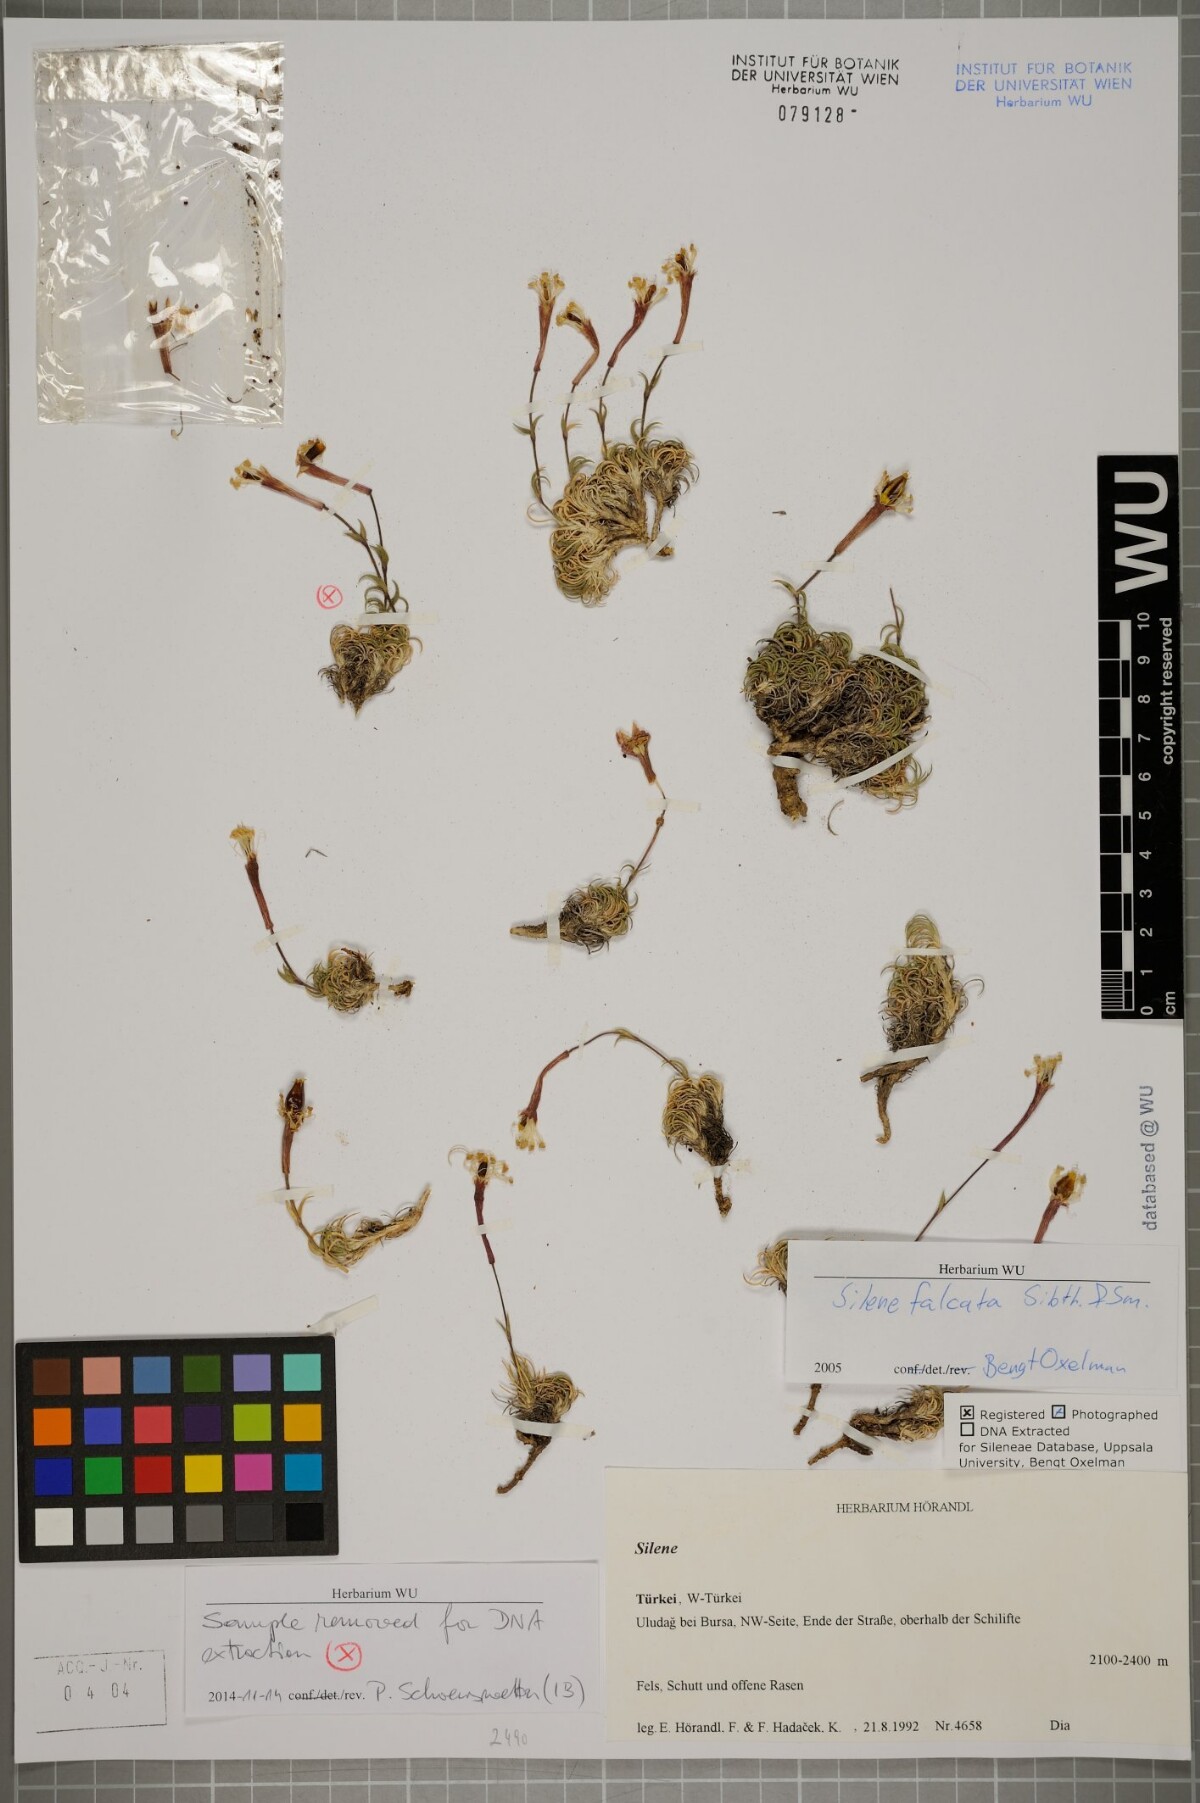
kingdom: Plantae
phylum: Tracheophyta
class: Magnoliopsida
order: Caryophyllales
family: Caryophyllaceae
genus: Silene
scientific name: Silene falcata
